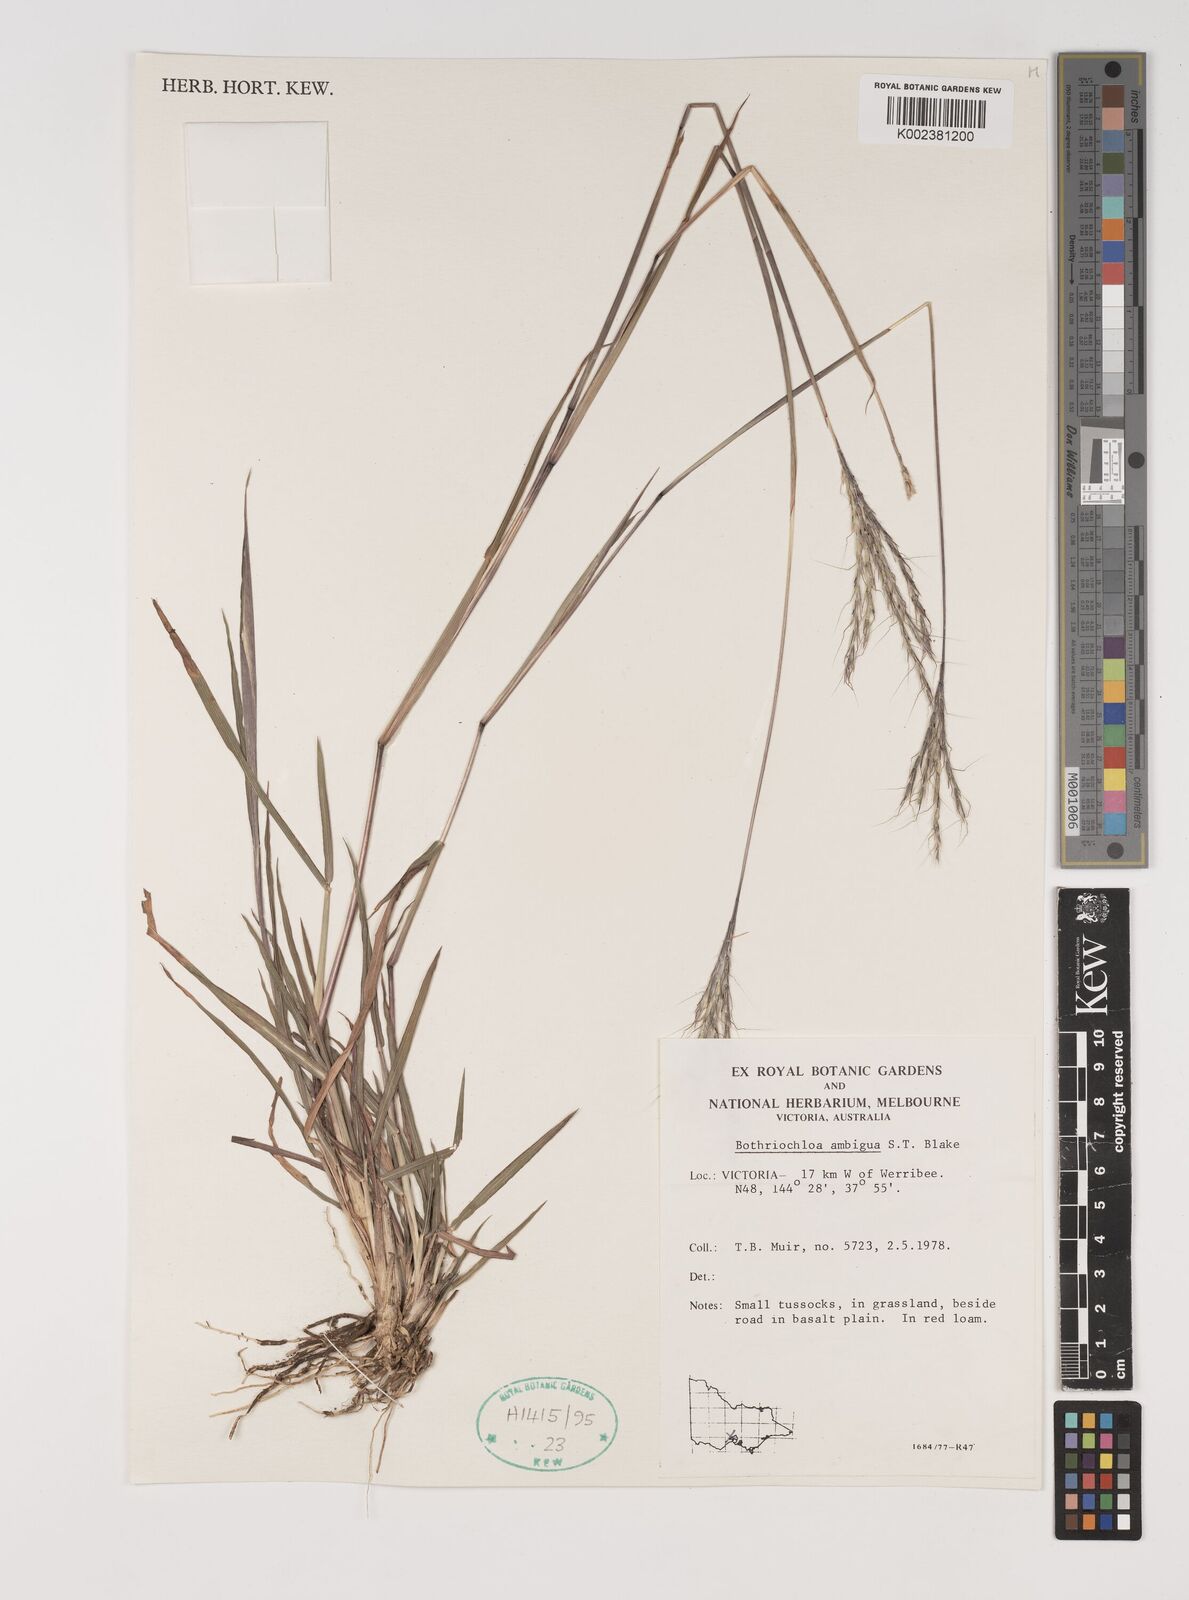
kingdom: Plantae
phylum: Tracheophyta
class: Liliopsida
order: Poales
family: Poaceae
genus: Bothriochloa
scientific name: Bothriochloa macra
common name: Pitted beard grass
